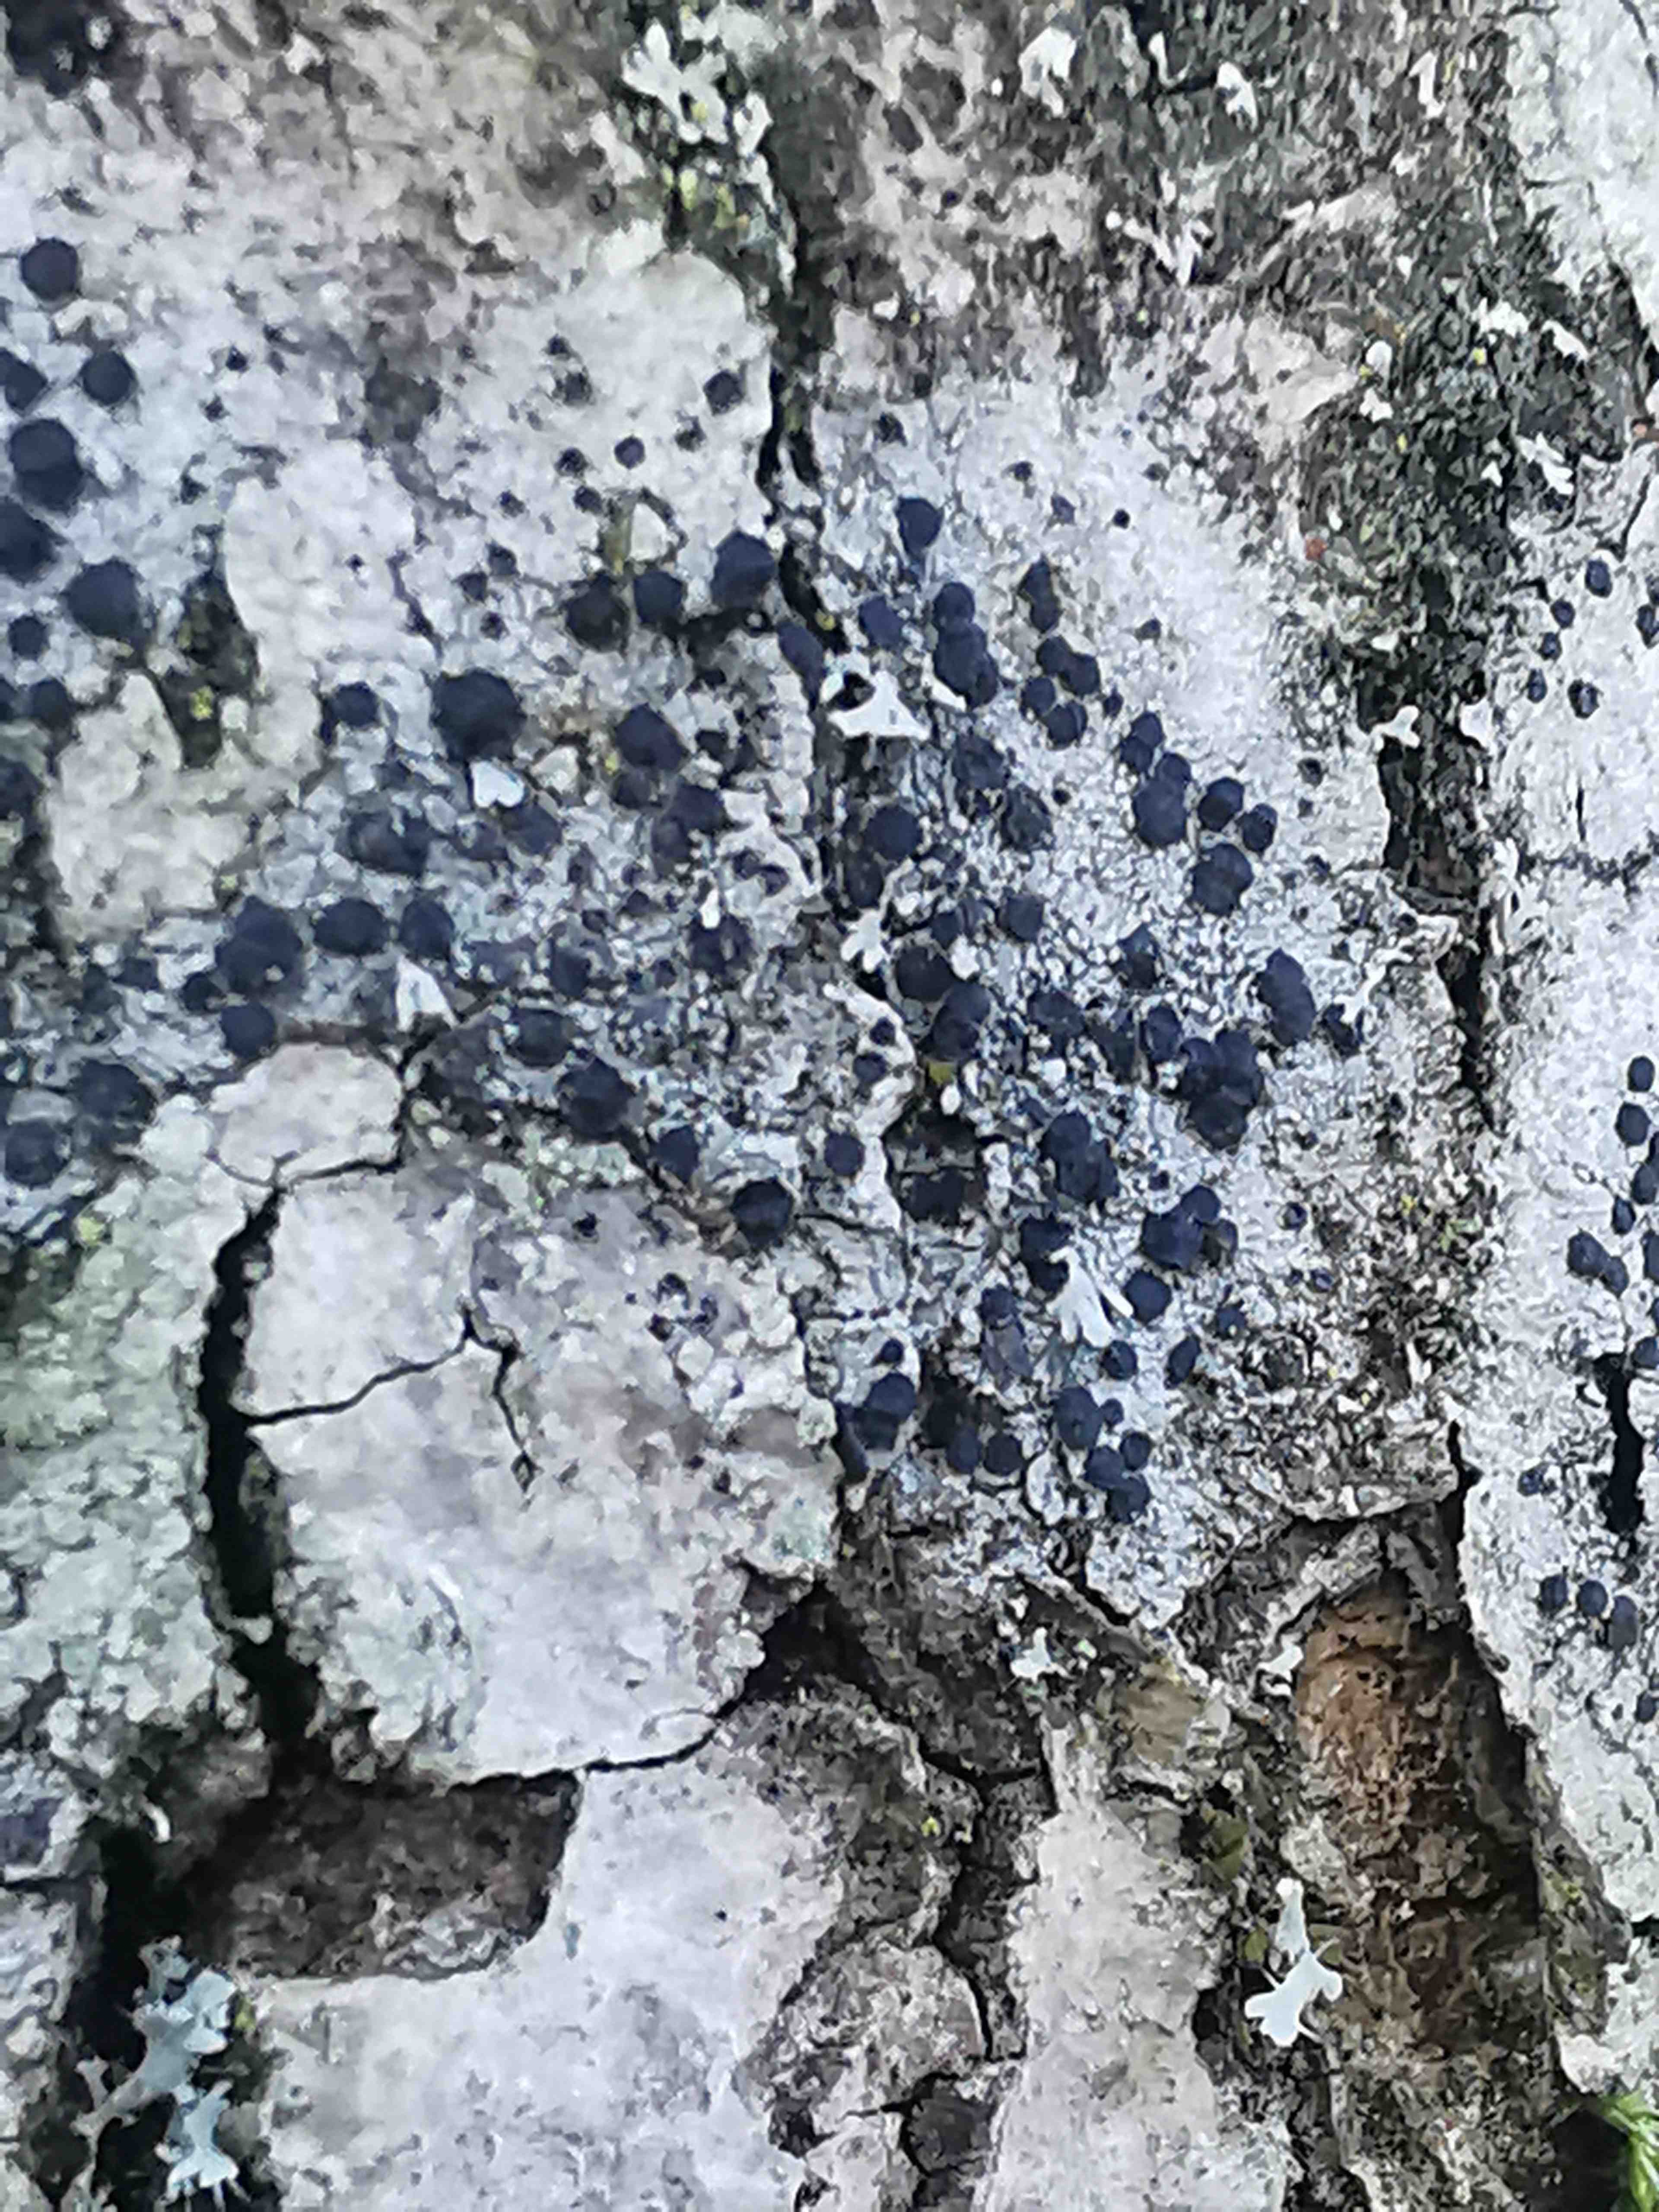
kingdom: Fungi
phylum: Ascomycota
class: Lecanoromycetes
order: Lecanorales
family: Lecanoraceae
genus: Lecidella
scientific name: Lecidella elaeochroma
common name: grågrøn skivelav
